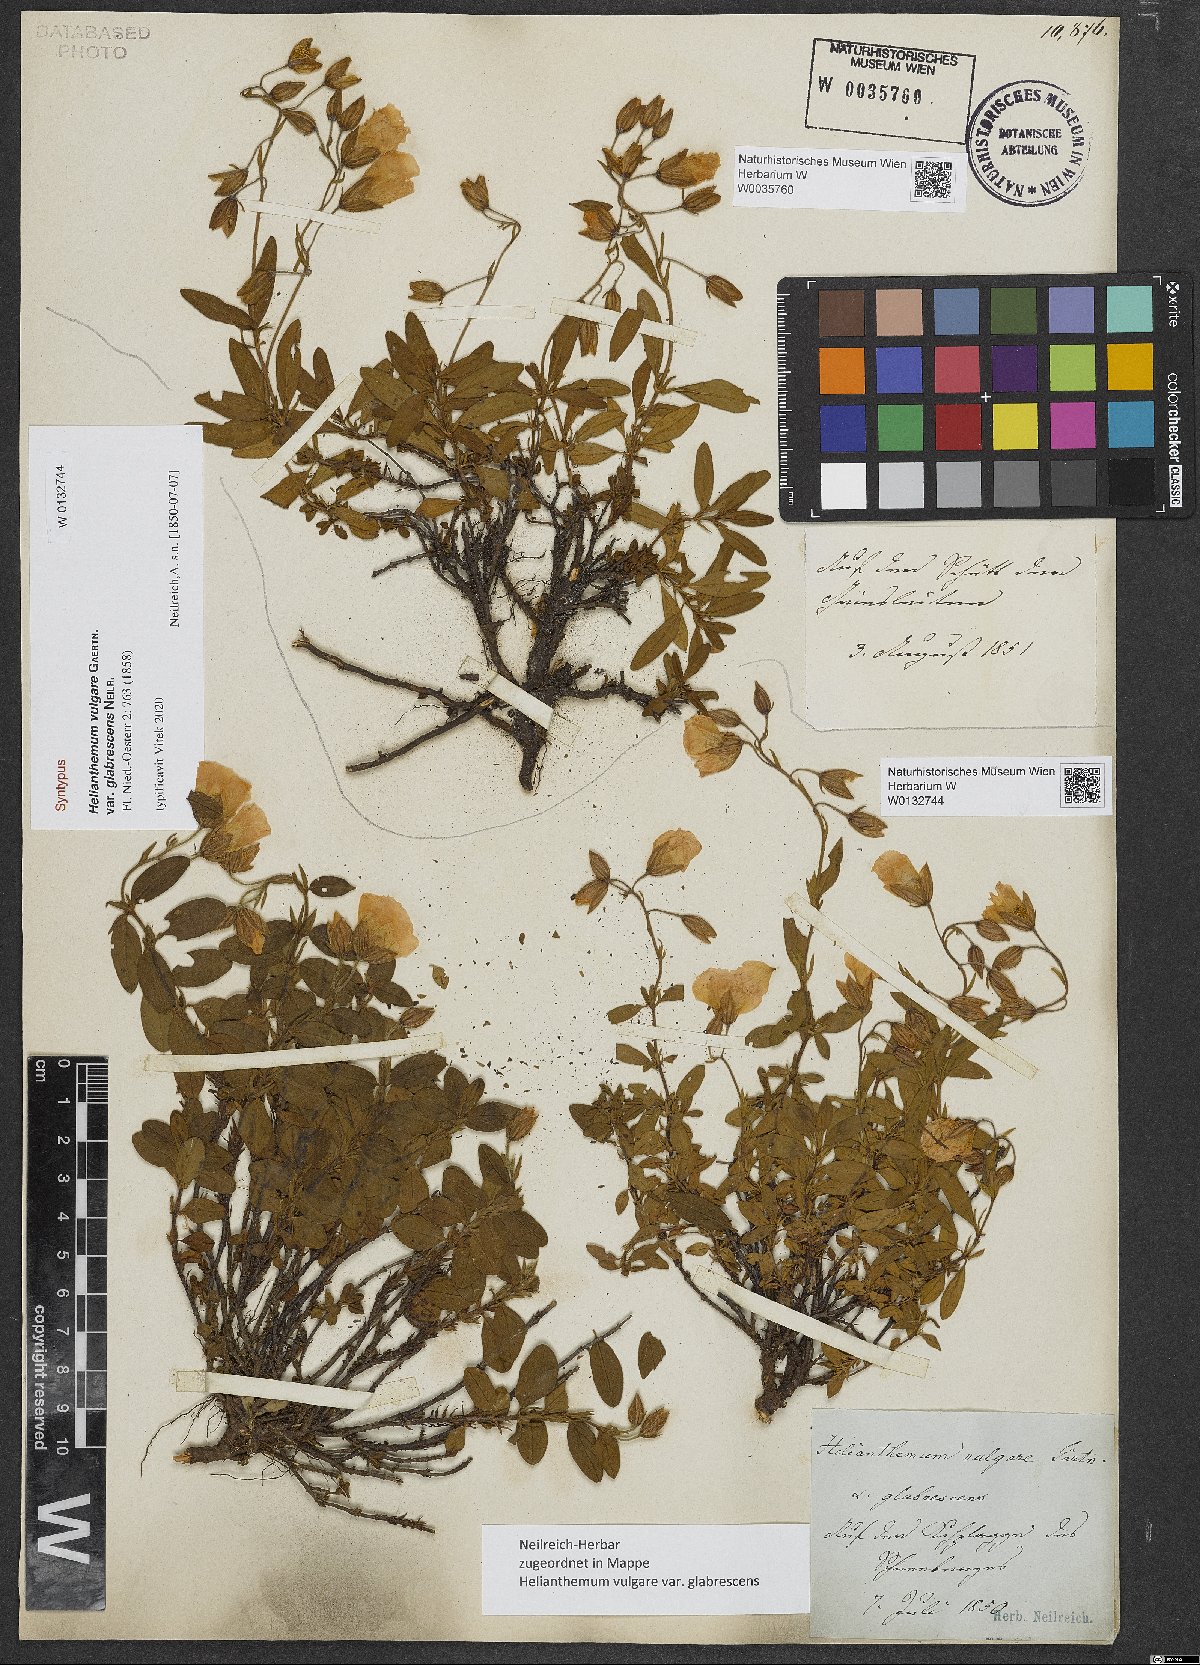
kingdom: Plantae
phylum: Tracheophyta
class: Magnoliopsida
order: Malvales
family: Cistaceae
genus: Helianthemum
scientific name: Helianthemum vulgare
